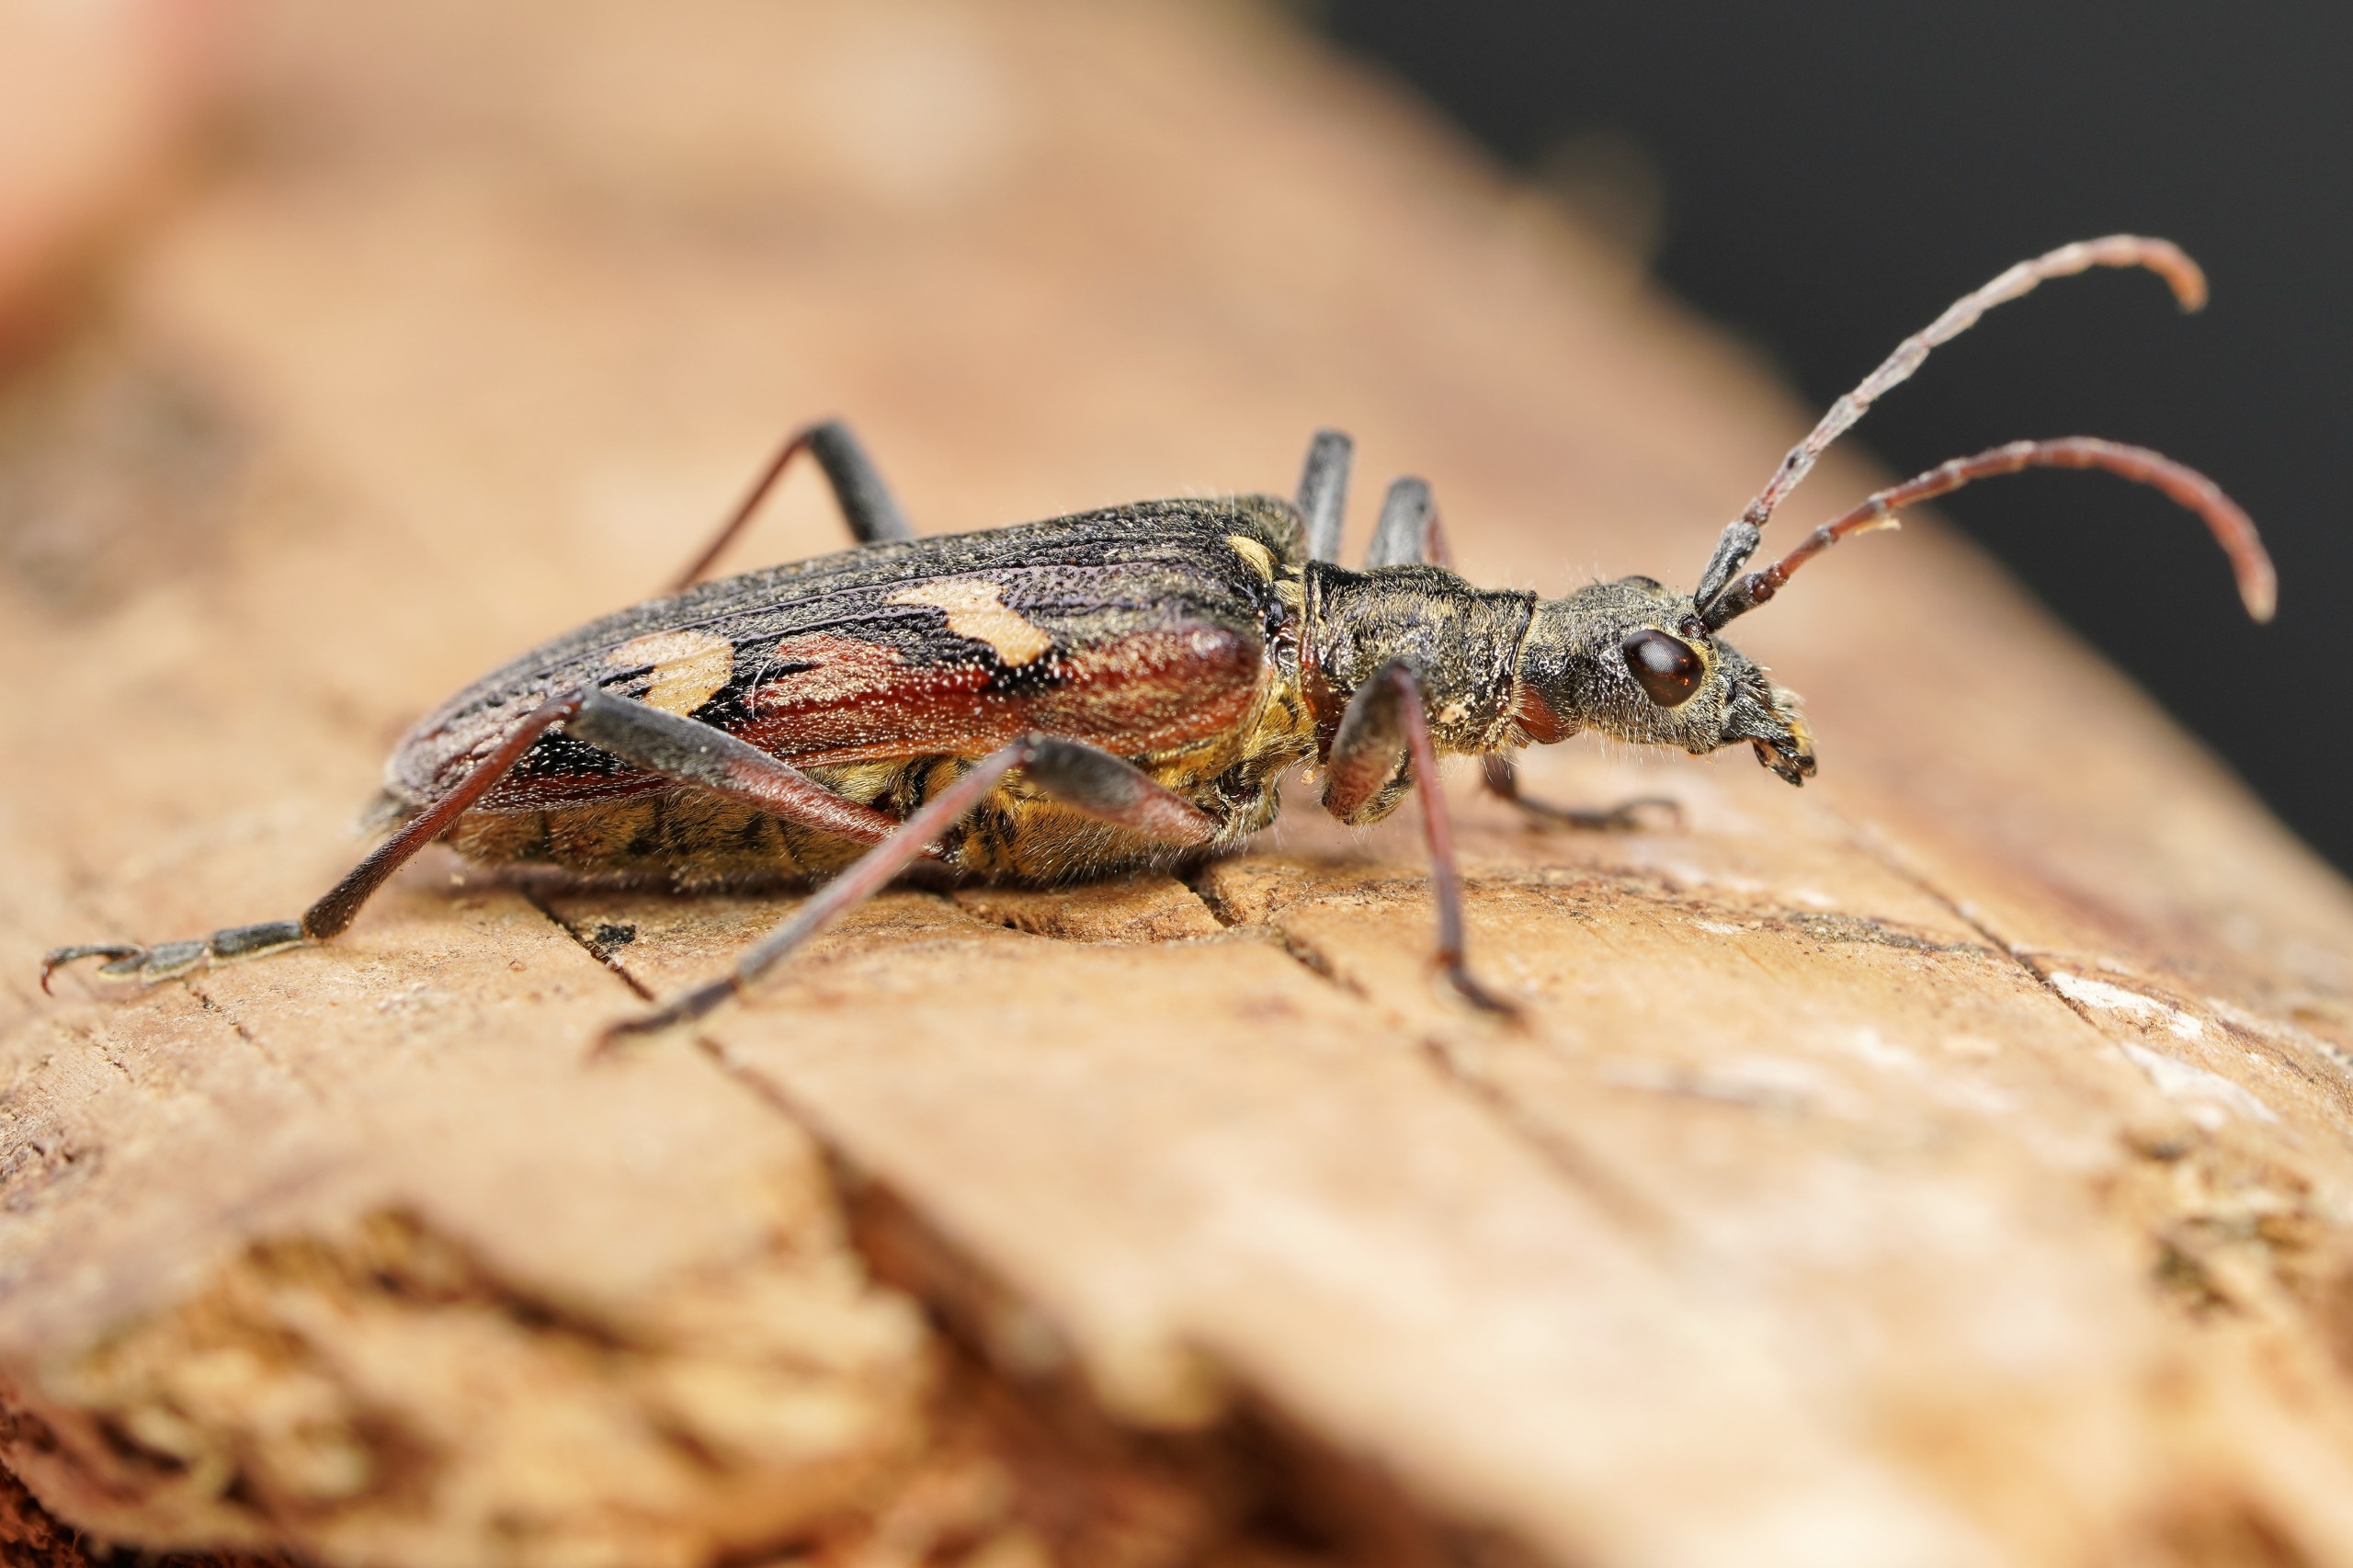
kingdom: Animalia
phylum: Arthropoda
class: Insecta
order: Coleoptera
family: Cerambycidae
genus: Rhagium
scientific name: Rhagium bifasciatum
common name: Båndet tandbuk
